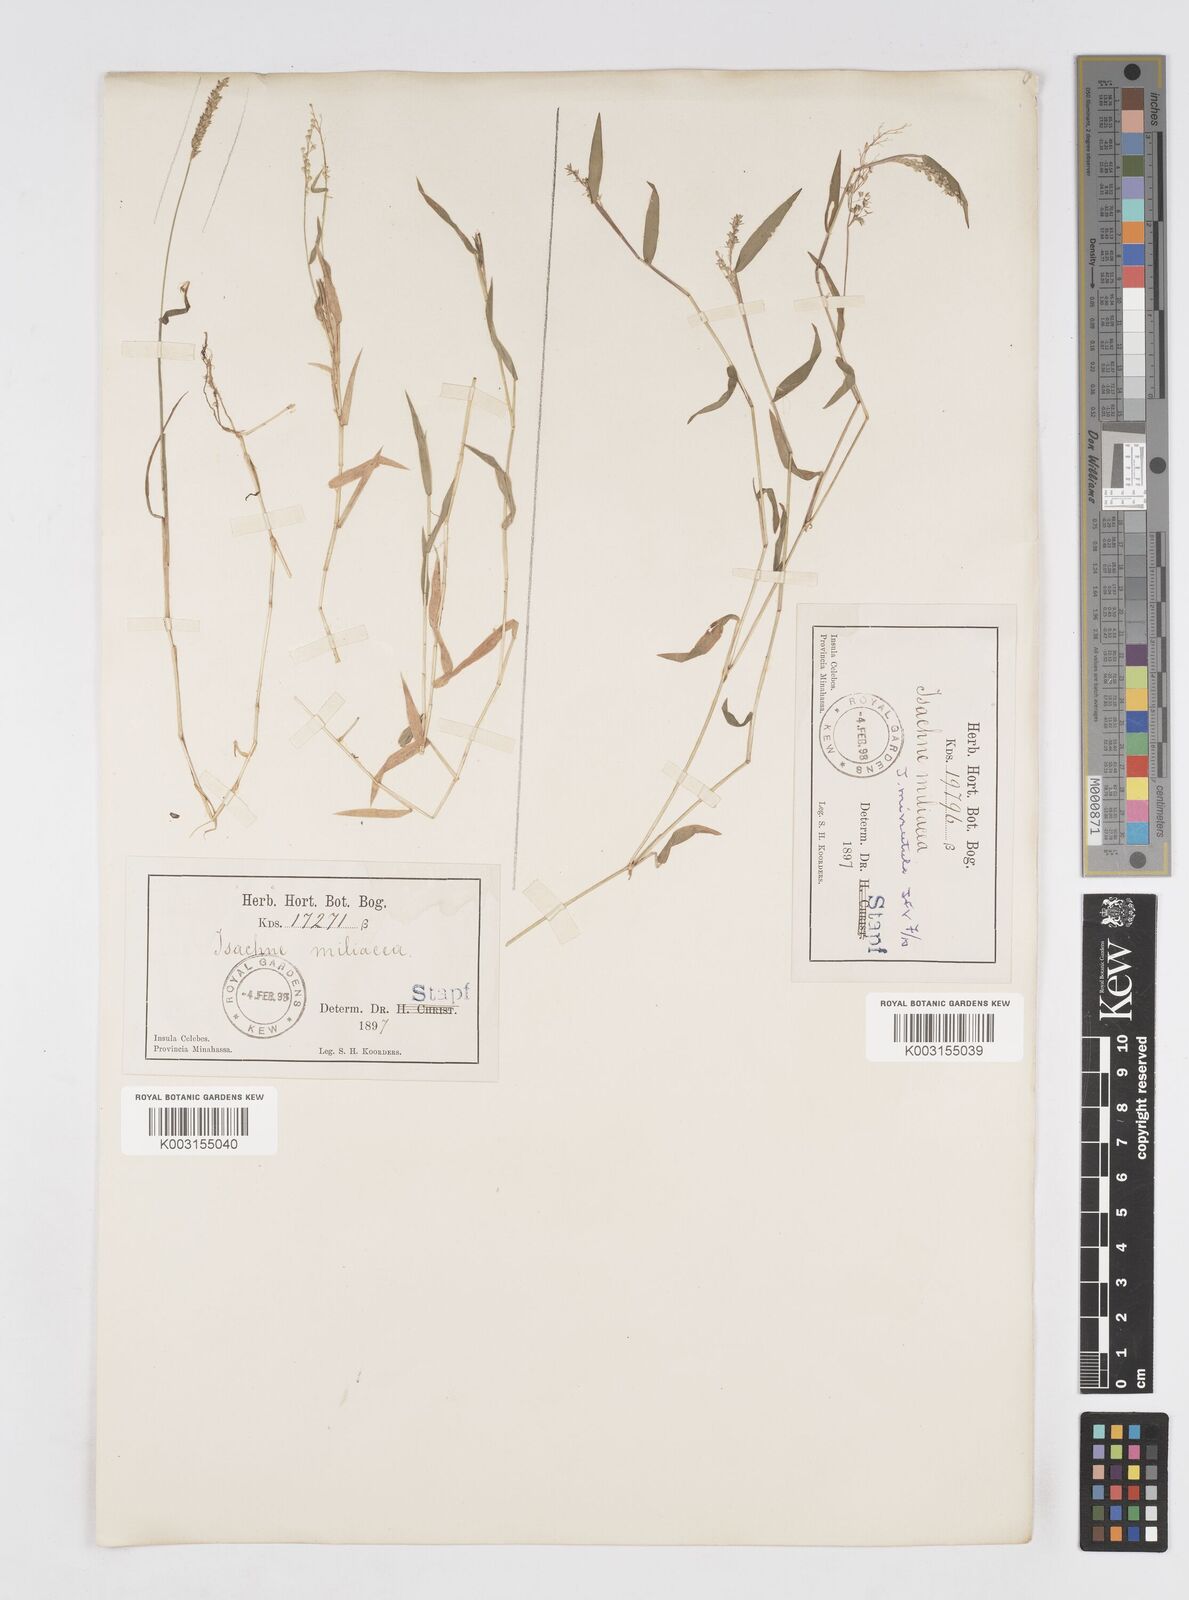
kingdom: Plantae
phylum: Tracheophyta
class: Liliopsida
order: Poales
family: Poaceae
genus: Isachne
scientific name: Isachne globosa
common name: Swamp millet
